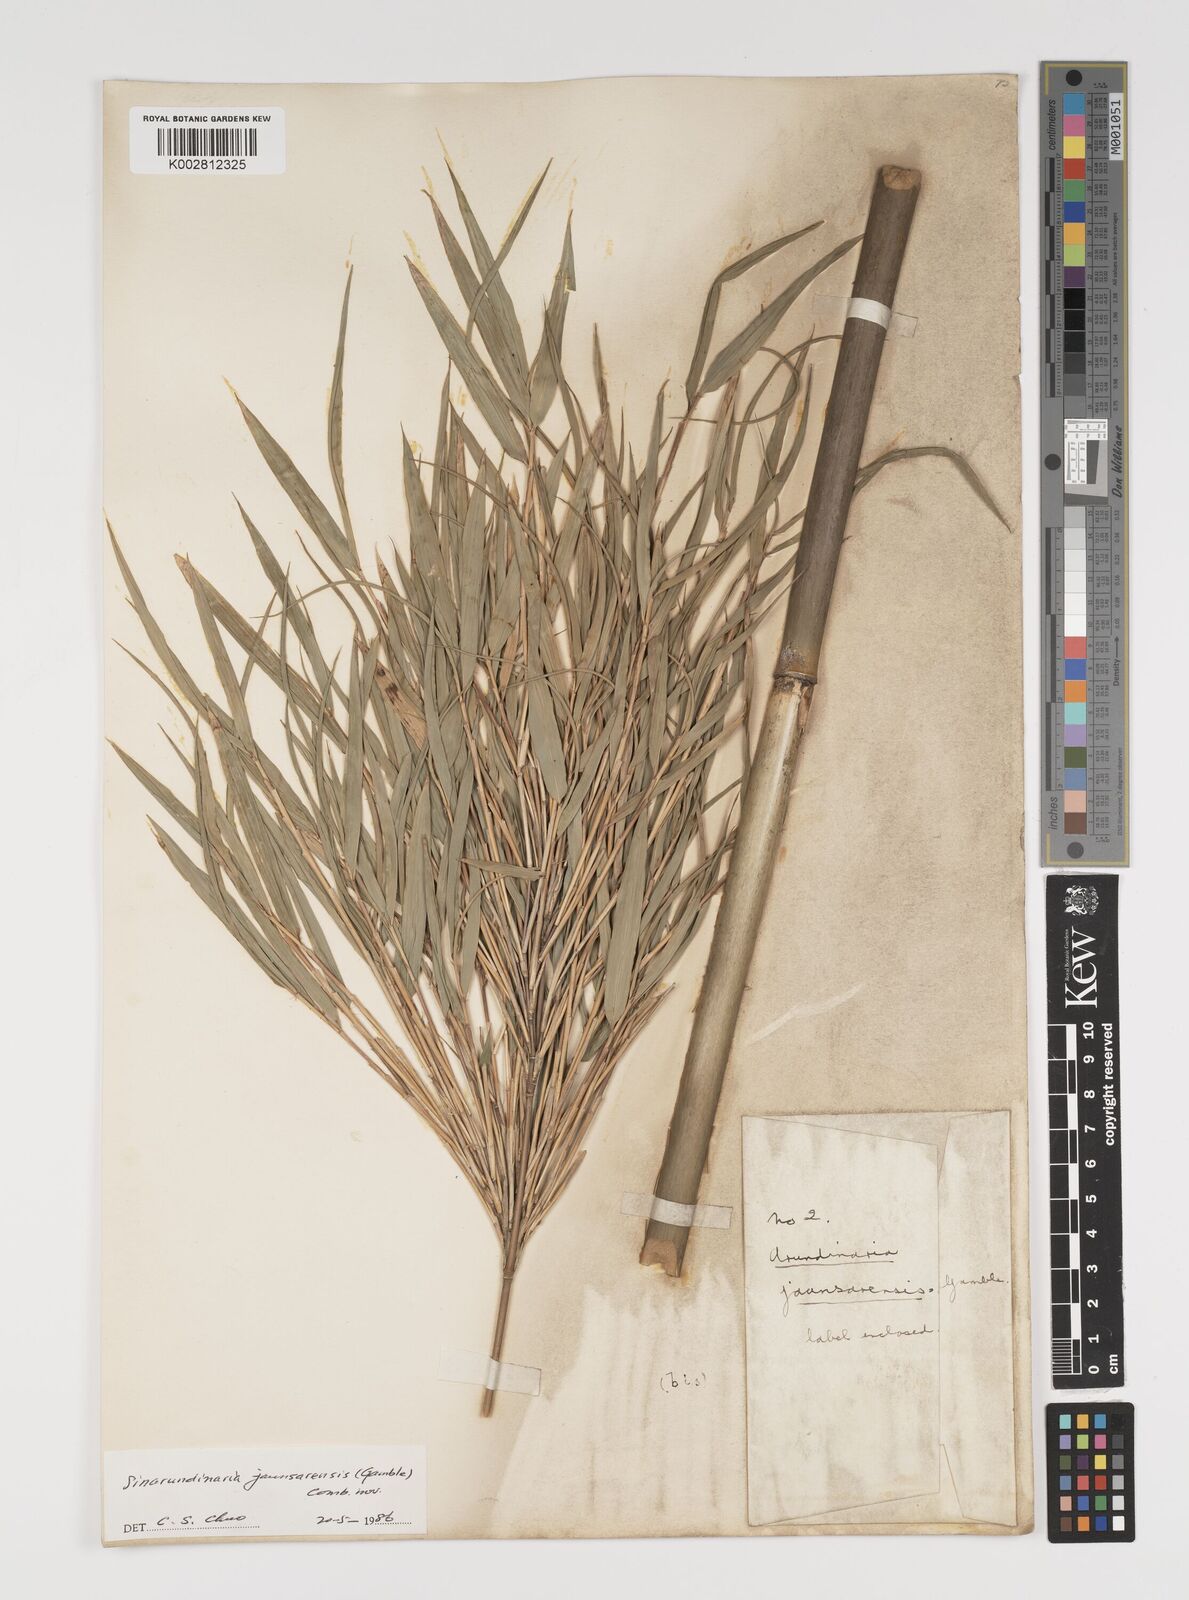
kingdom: Plantae
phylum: Tracheophyta
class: Liliopsida
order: Poales
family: Poaceae
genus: Yushania
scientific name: Yushania anceps
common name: Indian fountain-bamboo
